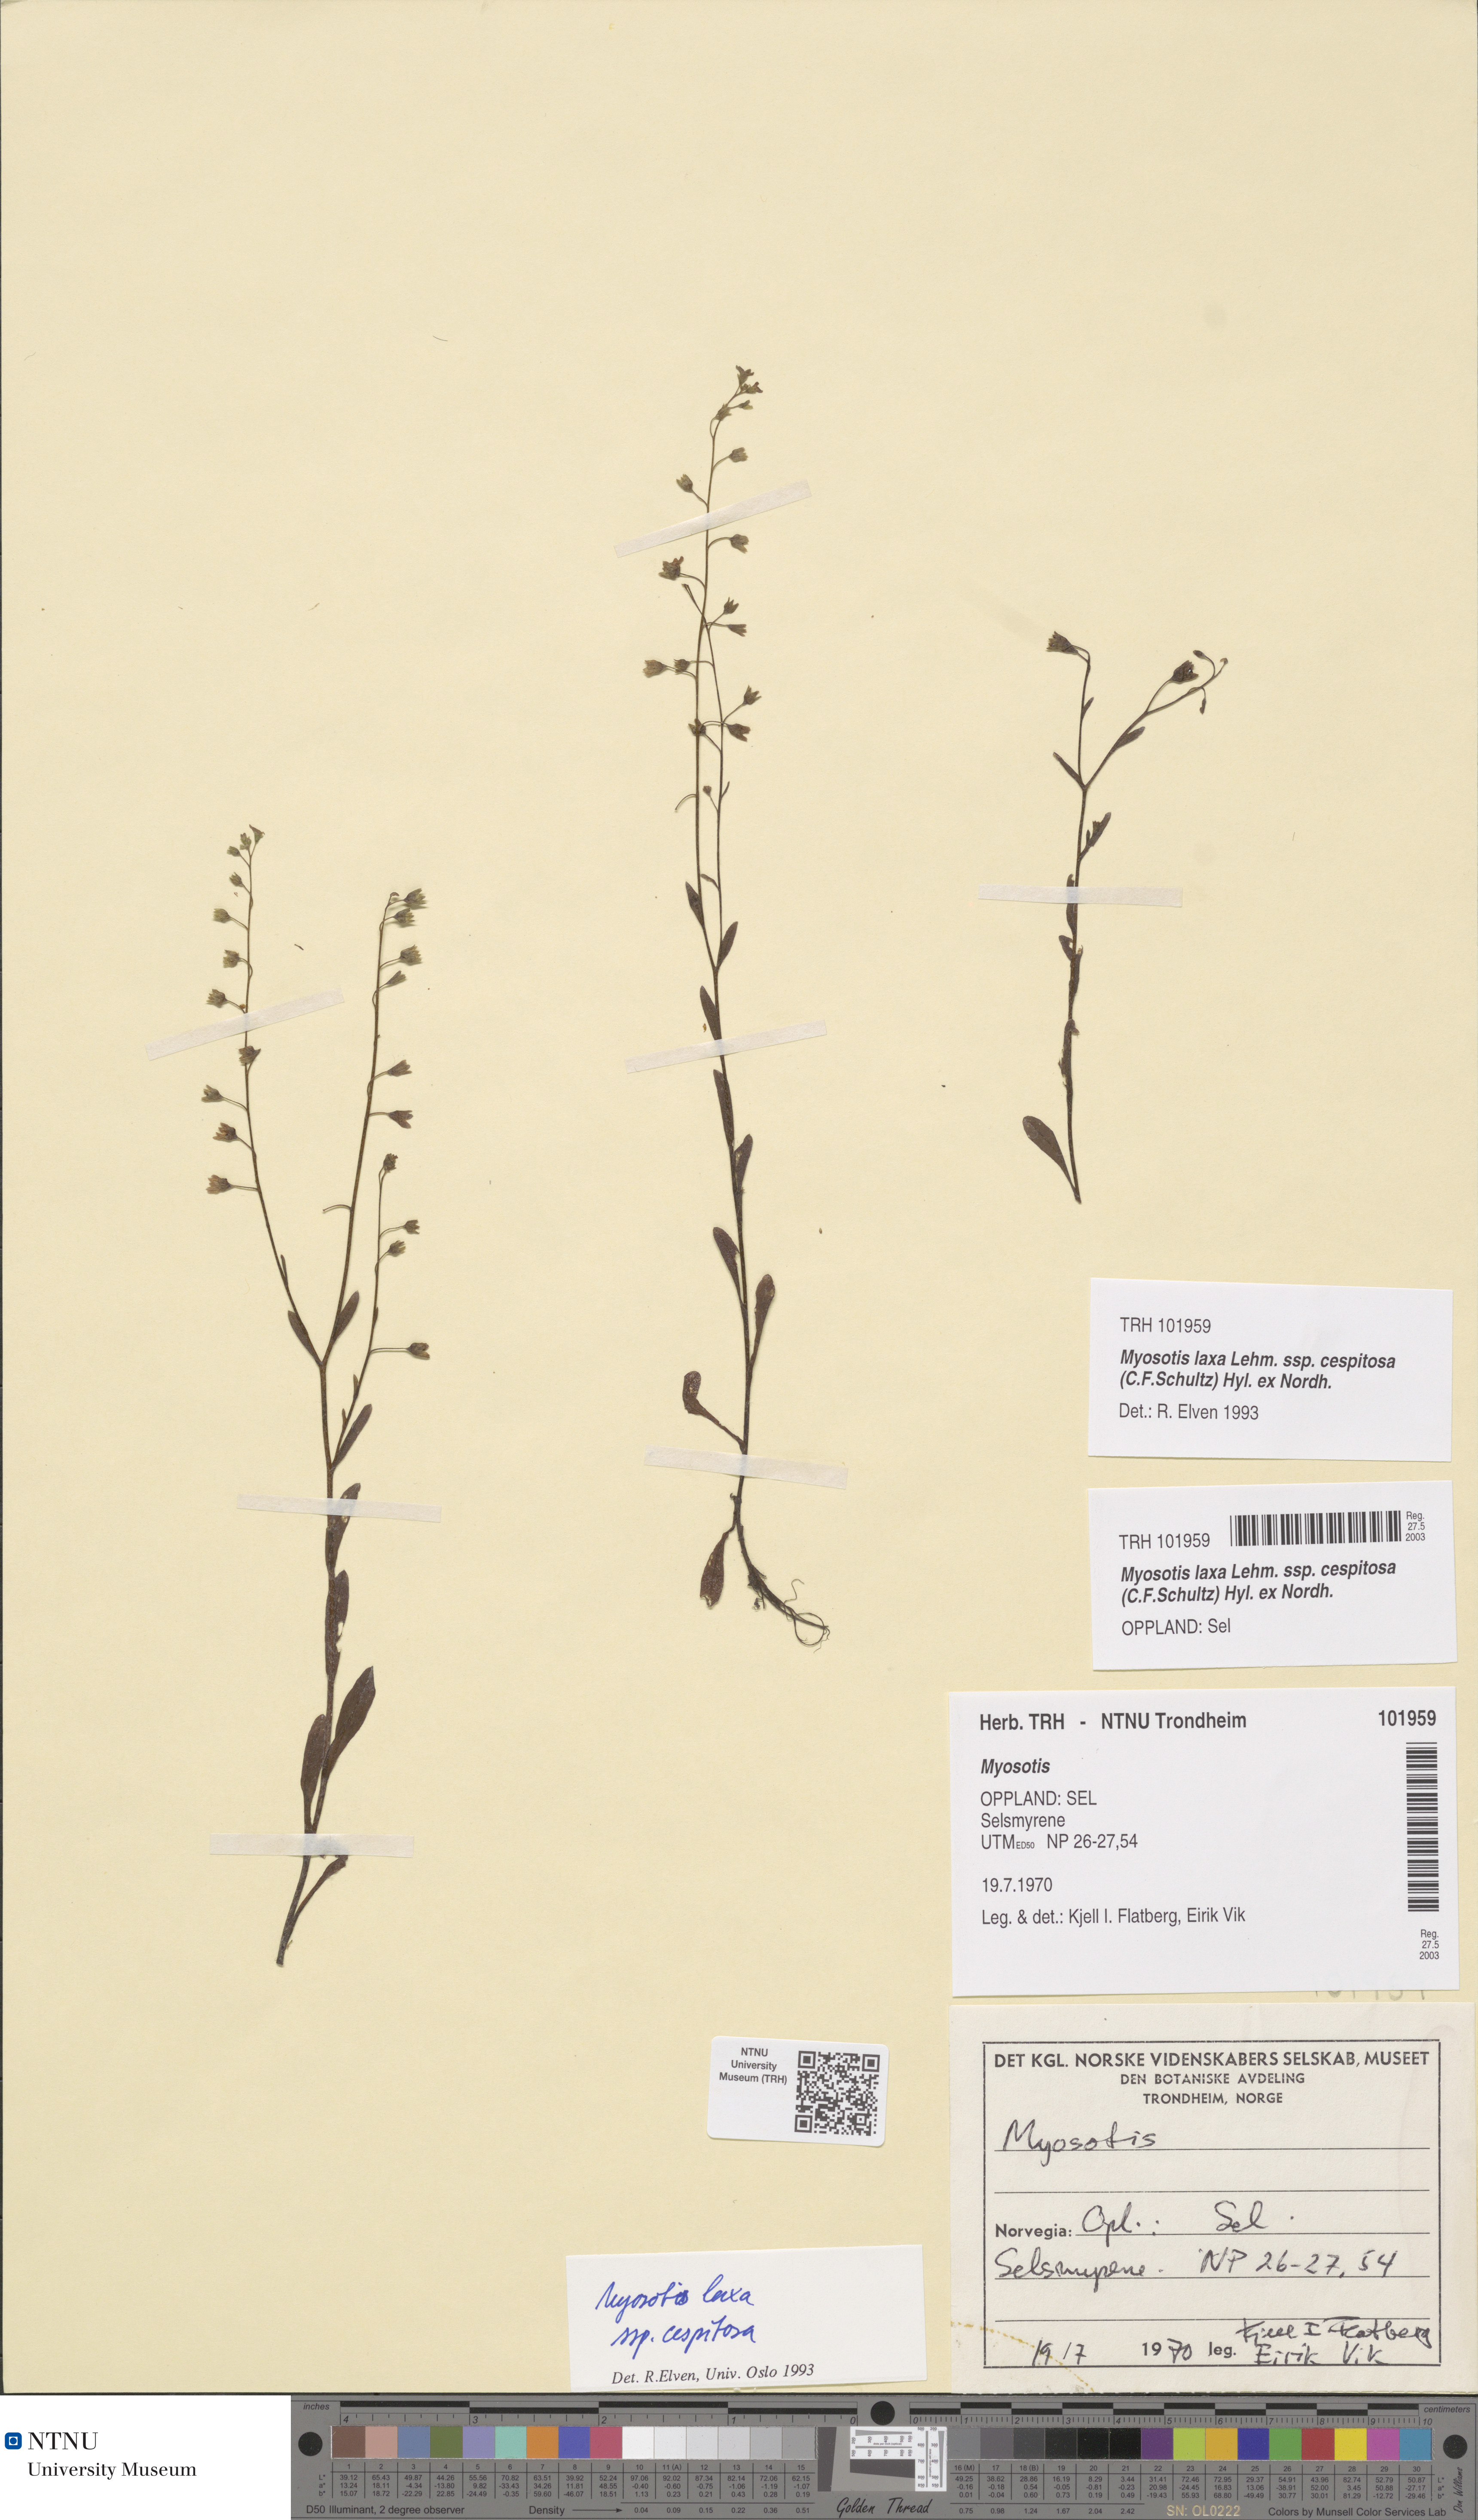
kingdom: Plantae
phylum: Tracheophyta
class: Magnoliopsida
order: Boraginales
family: Boraginaceae
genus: Myosotis
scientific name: Myosotis laxa
